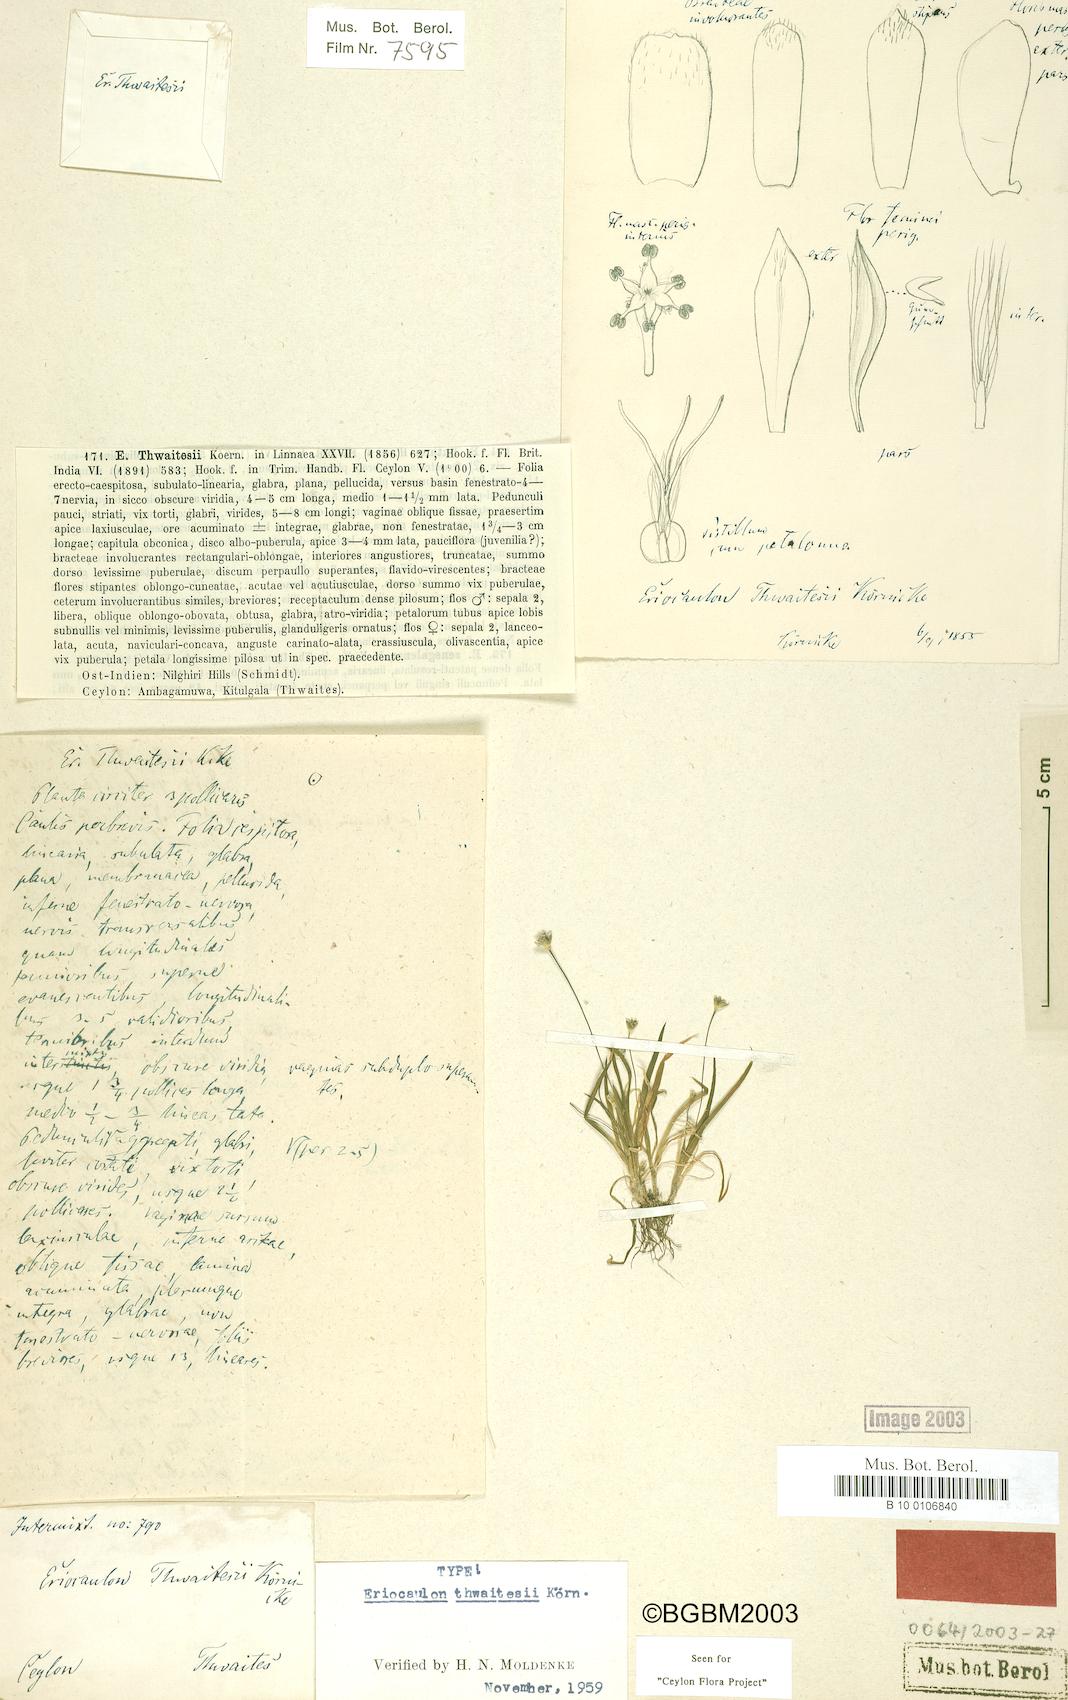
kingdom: Plantae
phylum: Tracheophyta
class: Liliopsida
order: Poales
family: Eriocaulaceae
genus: Eriocaulon
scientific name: Eriocaulon thwaitesii
